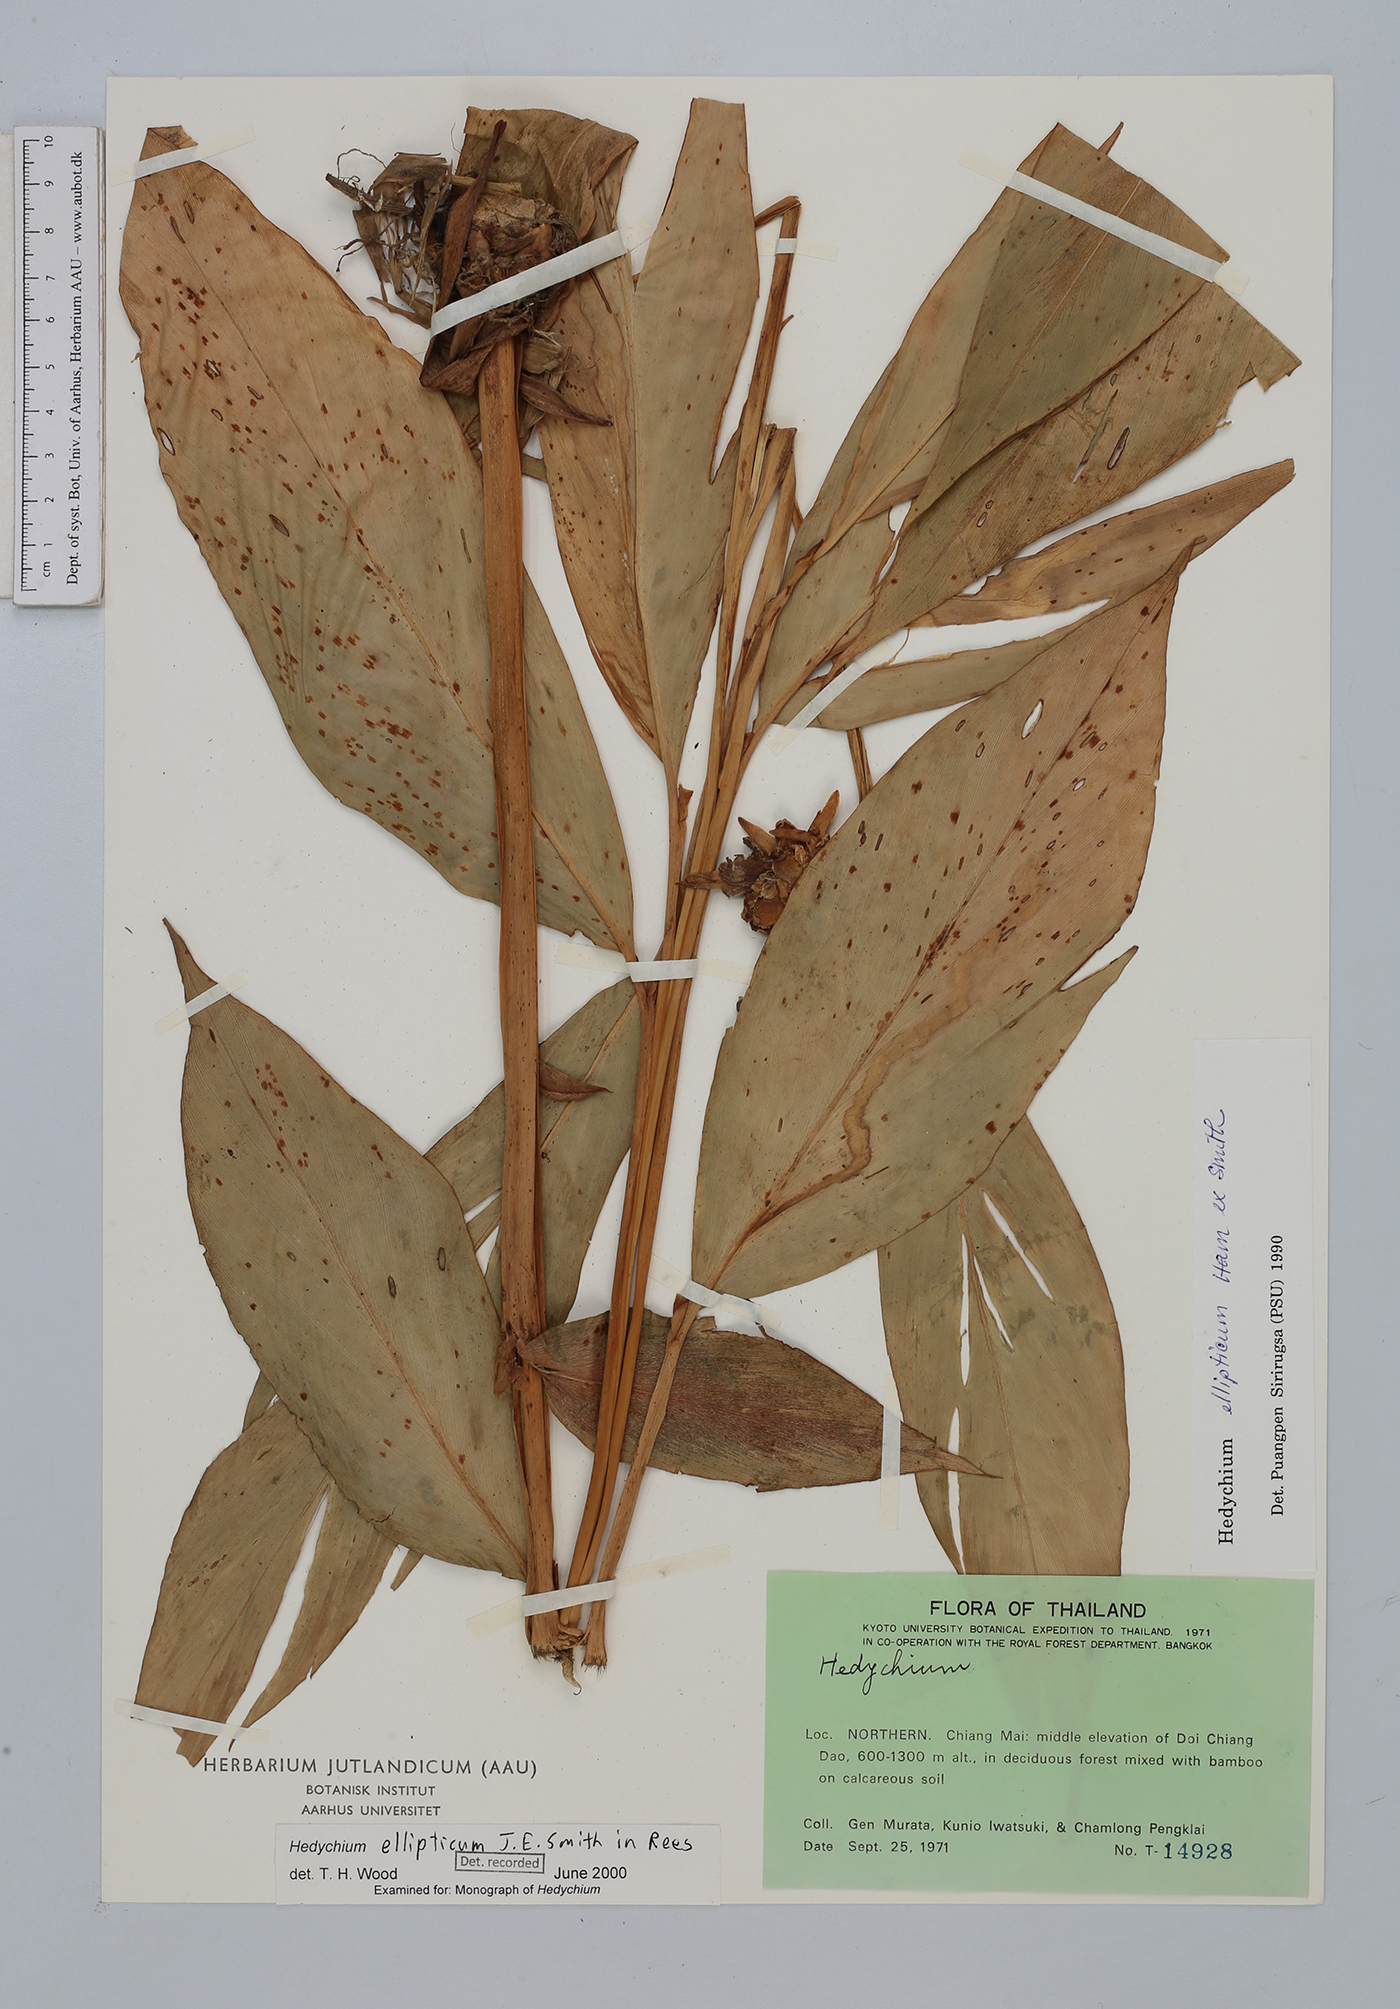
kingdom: Plantae
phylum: Tracheophyta
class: Liliopsida
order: Zingiberales
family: Zingiberaceae
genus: Hedychium
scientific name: Hedychium ellipticum
